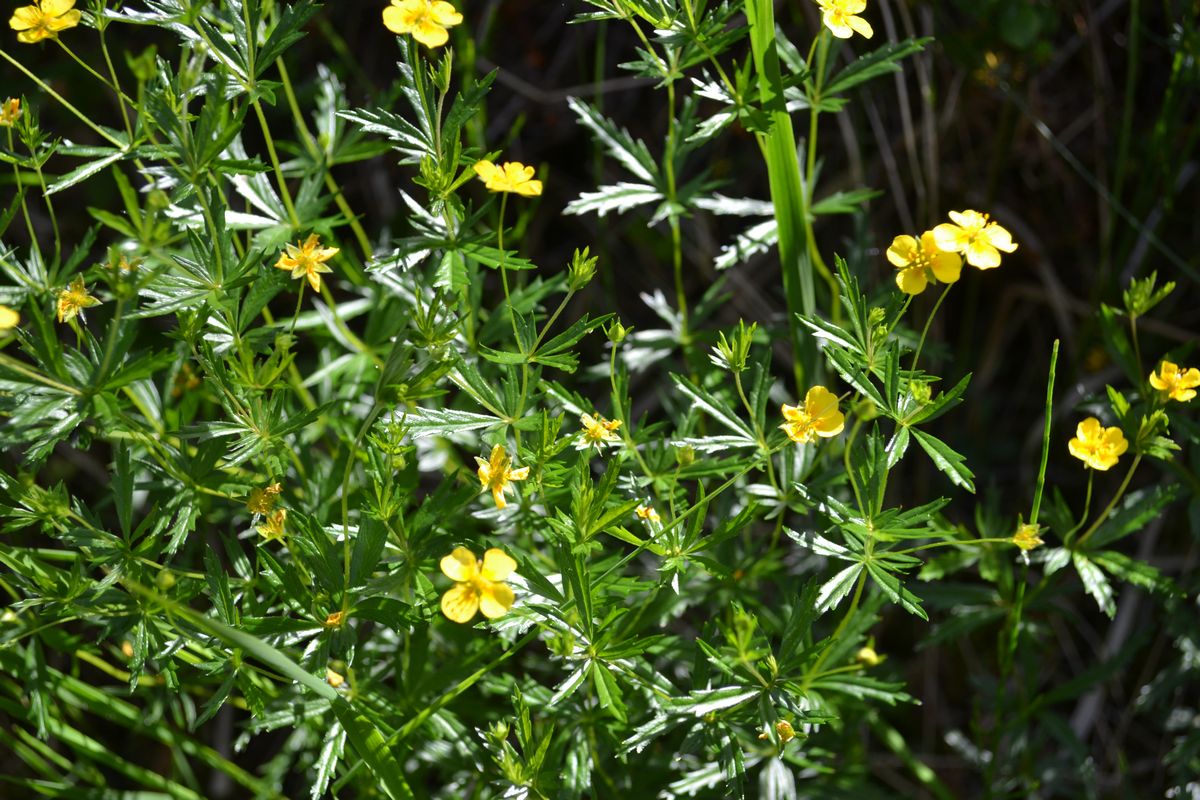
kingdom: Plantae
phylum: Tracheophyta
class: Magnoliopsida
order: Rosales
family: Rosaceae
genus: Potentilla
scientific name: Potentilla erecta
